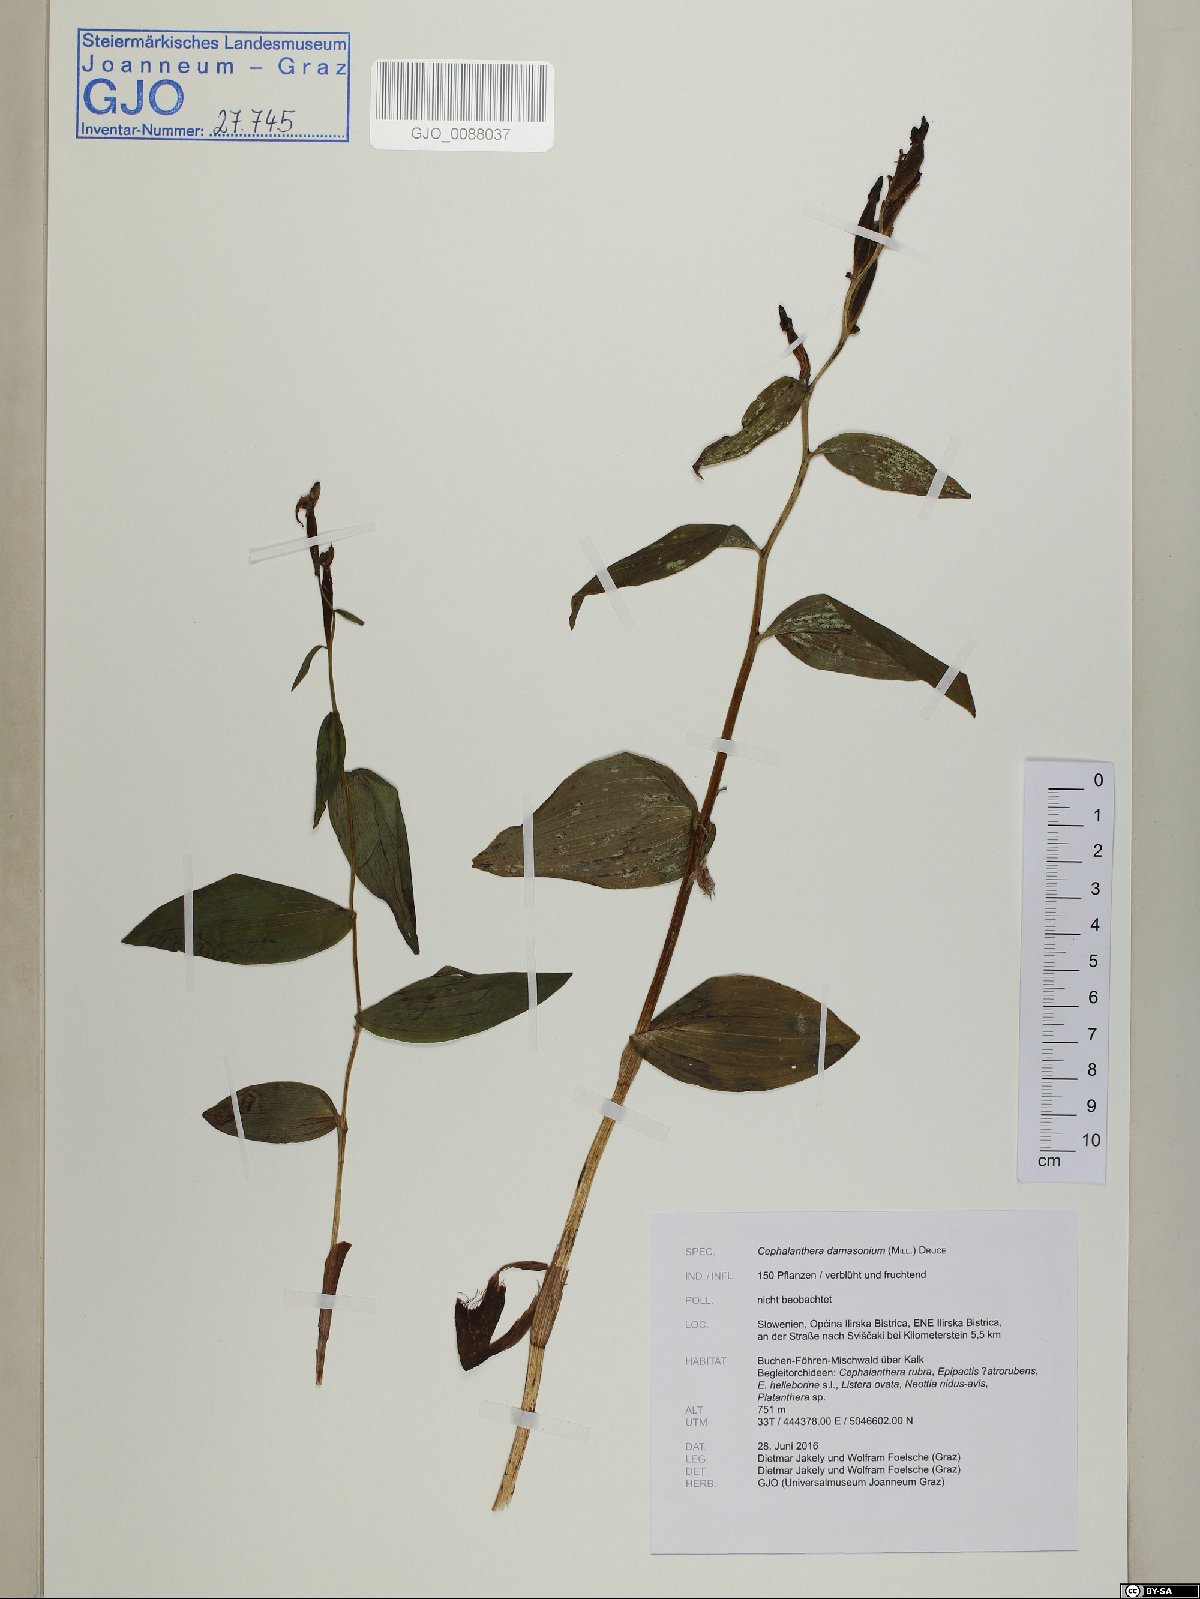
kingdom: Plantae
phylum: Tracheophyta
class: Liliopsida
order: Asparagales
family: Orchidaceae
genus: Cephalanthera
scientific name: Cephalanthera damasonium
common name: White helleborine
